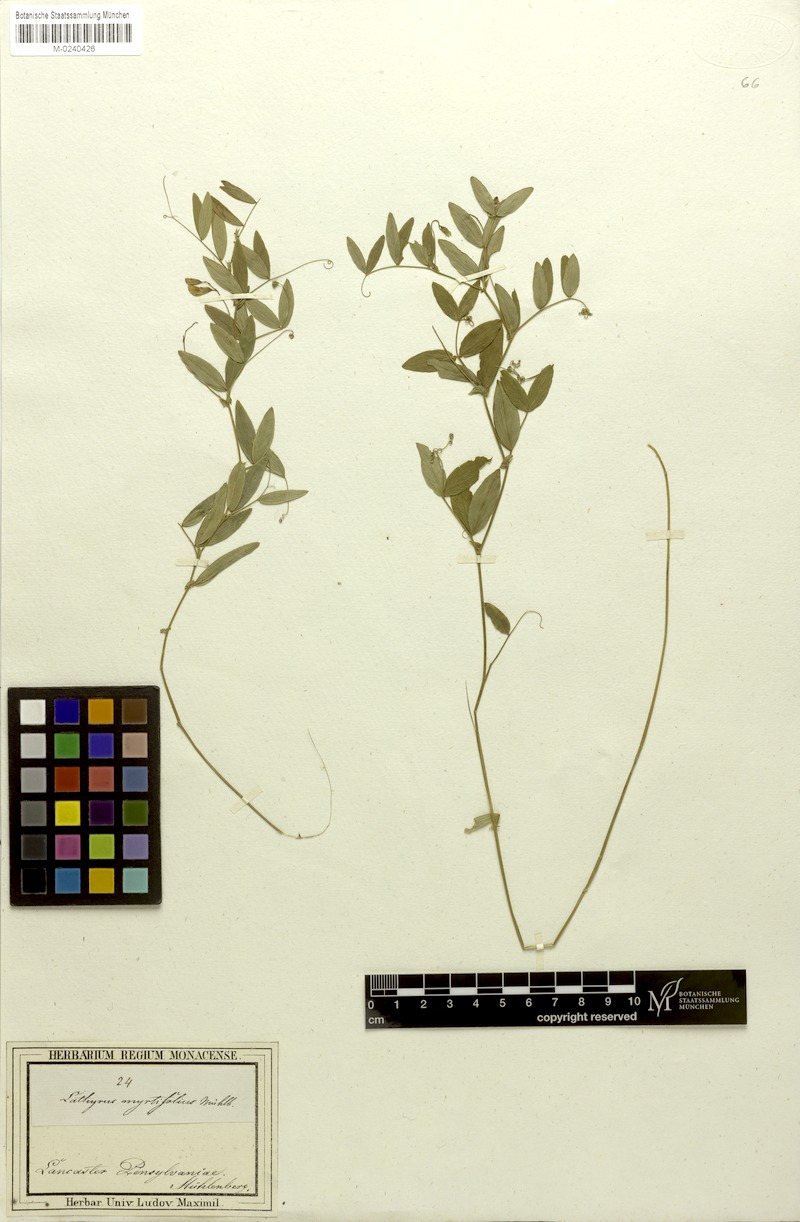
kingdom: Plantae
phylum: Tracheophyta
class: Magnoliopsida
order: Fabales
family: Fabaceae
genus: Lathyrus
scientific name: Lathyrus palustris
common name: Marsh pea
